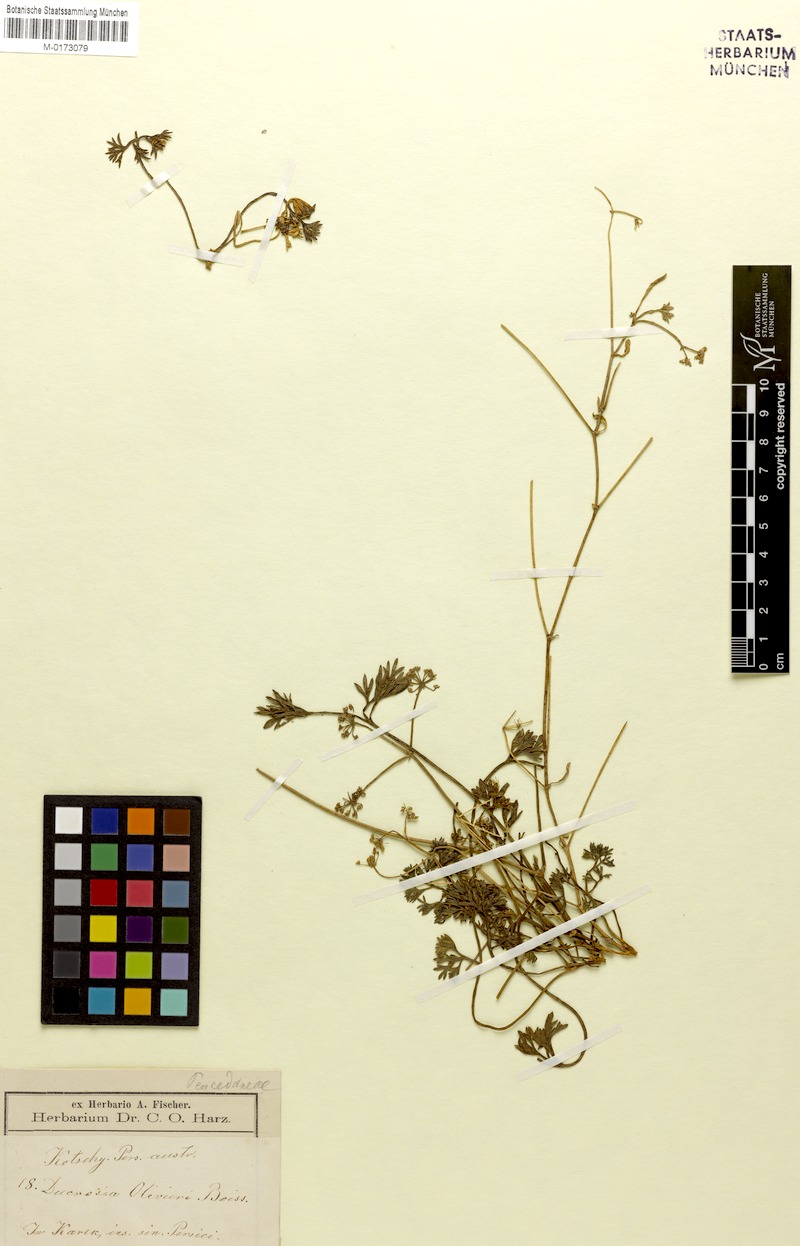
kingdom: Plantae
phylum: Tracheophyta
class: Magnoliopsida
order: Apiales
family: Apiaceae
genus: Ducrosia
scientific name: Ducrosia anethifolia
